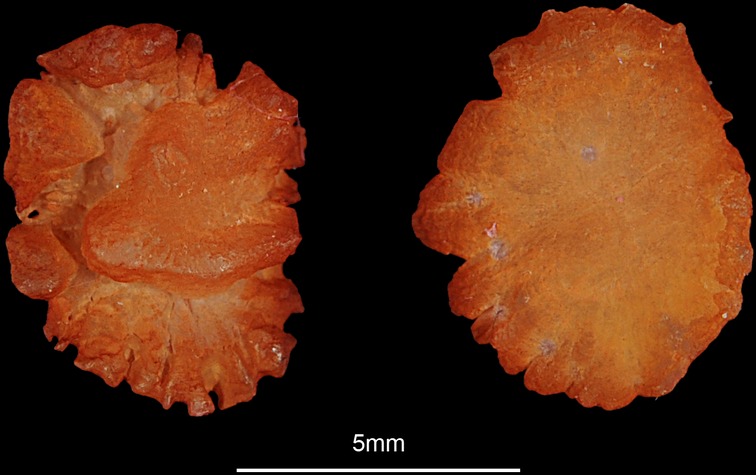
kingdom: Animalia
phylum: Chordata
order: Perciformes
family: Cichlidae
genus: Oreochromis
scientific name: Oreochromis mossambicus
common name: Mozambique tilapia
